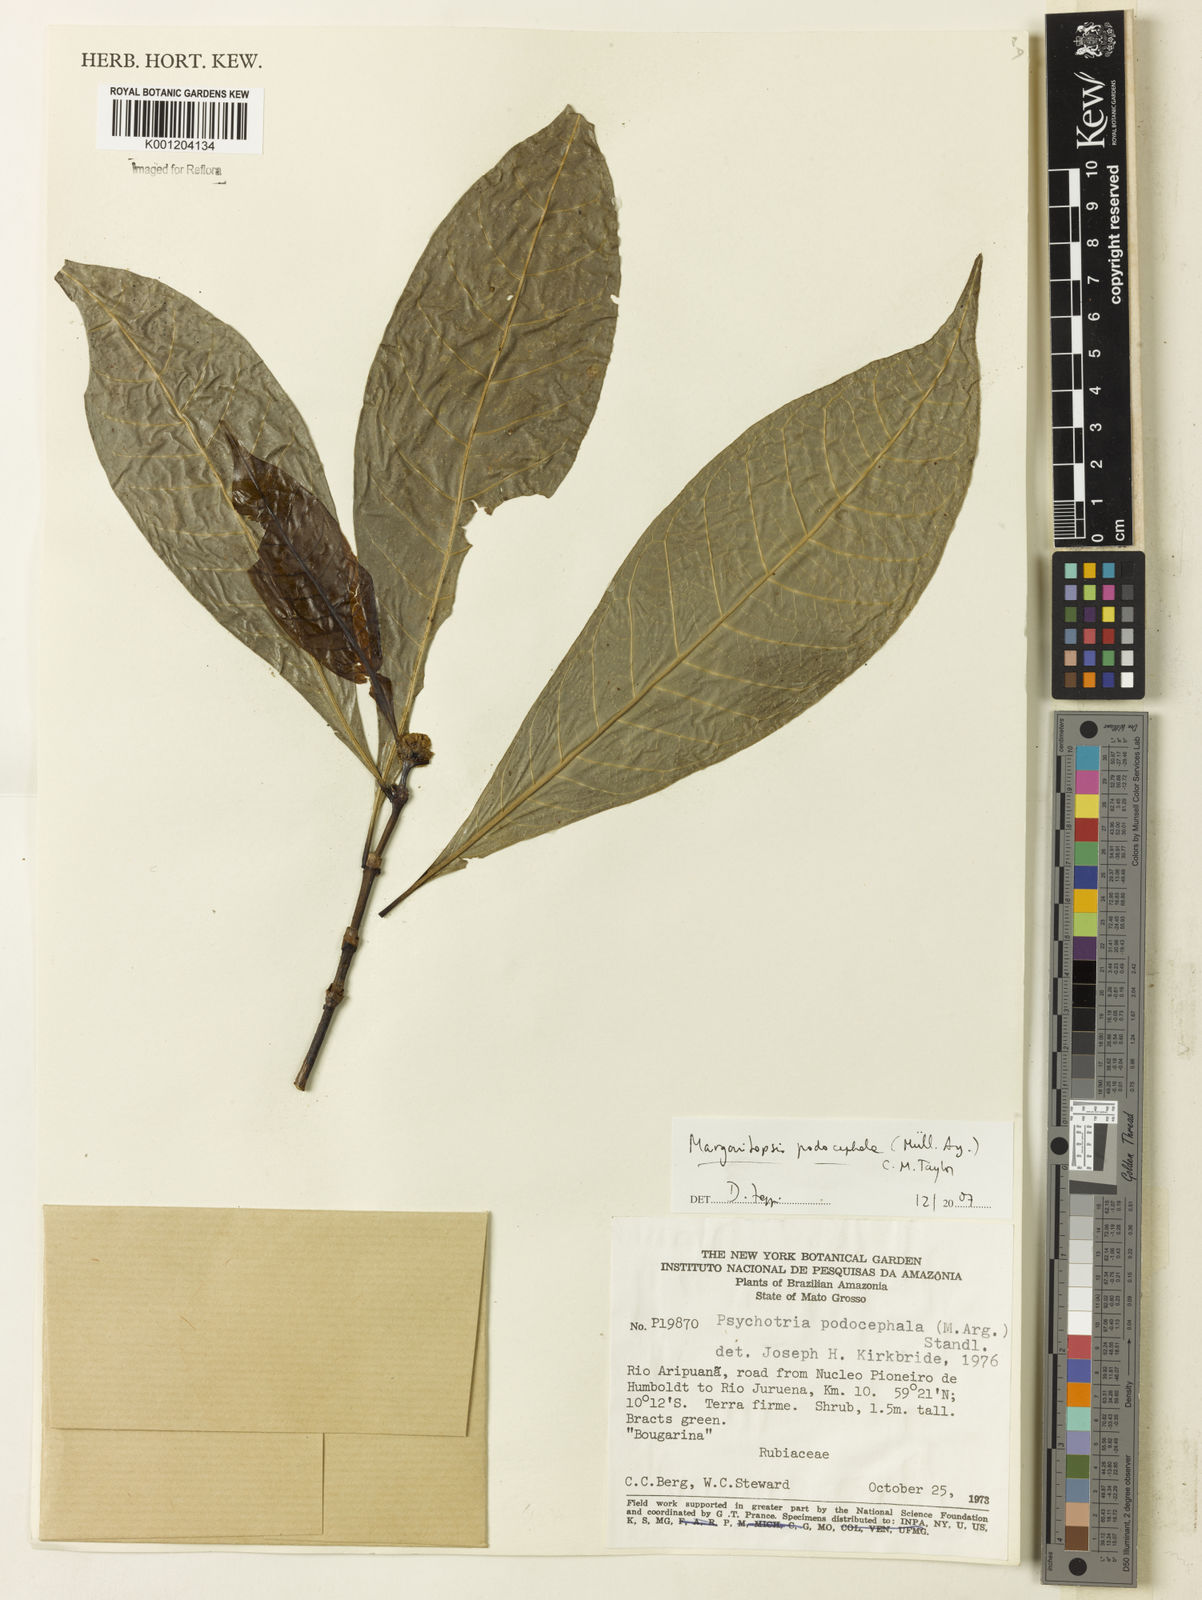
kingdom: Plantae
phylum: Tracheophyta
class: Magnoliopsida
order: Gentianales
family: Rubiaceae
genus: Eumachia
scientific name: Eumachia
